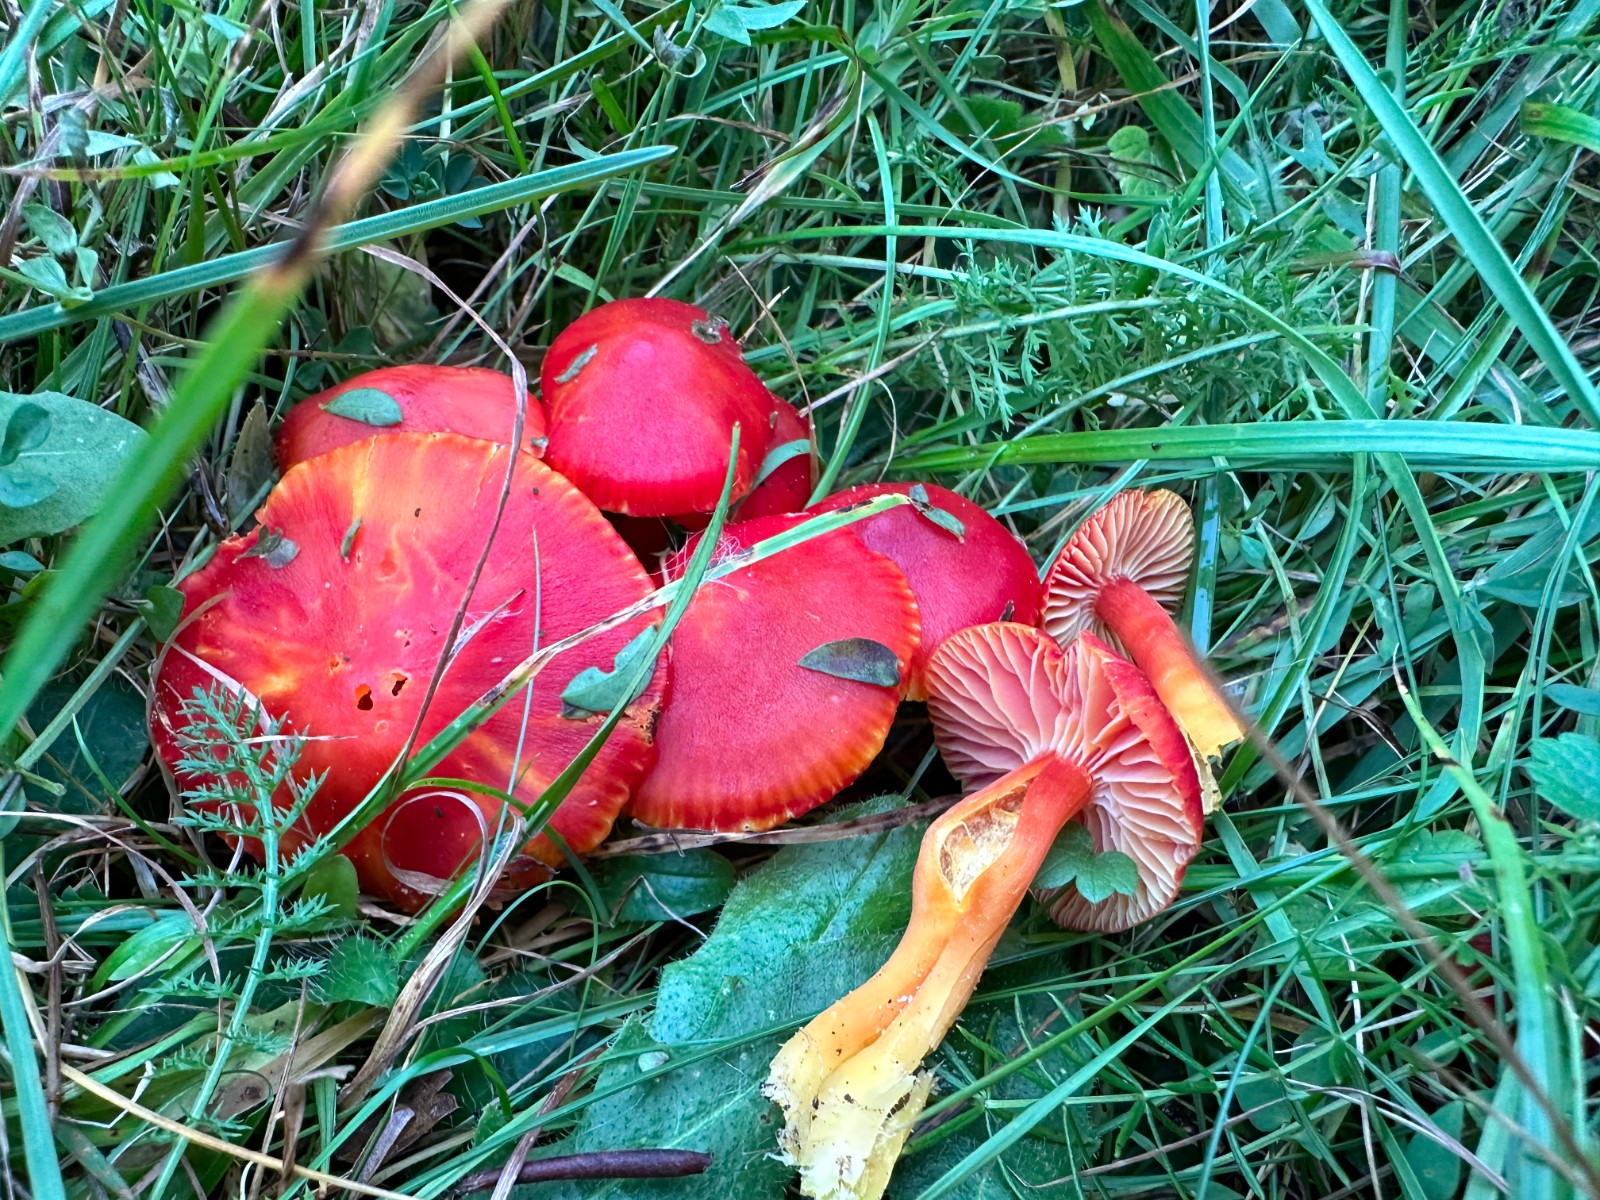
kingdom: Fungi
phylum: Basidiomycota
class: Agaricomycetes
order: Agaricales
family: Hygrophoraceae
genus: Hygrocybe
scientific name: Hygrocybe coccinea
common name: cinnober-vokshat
